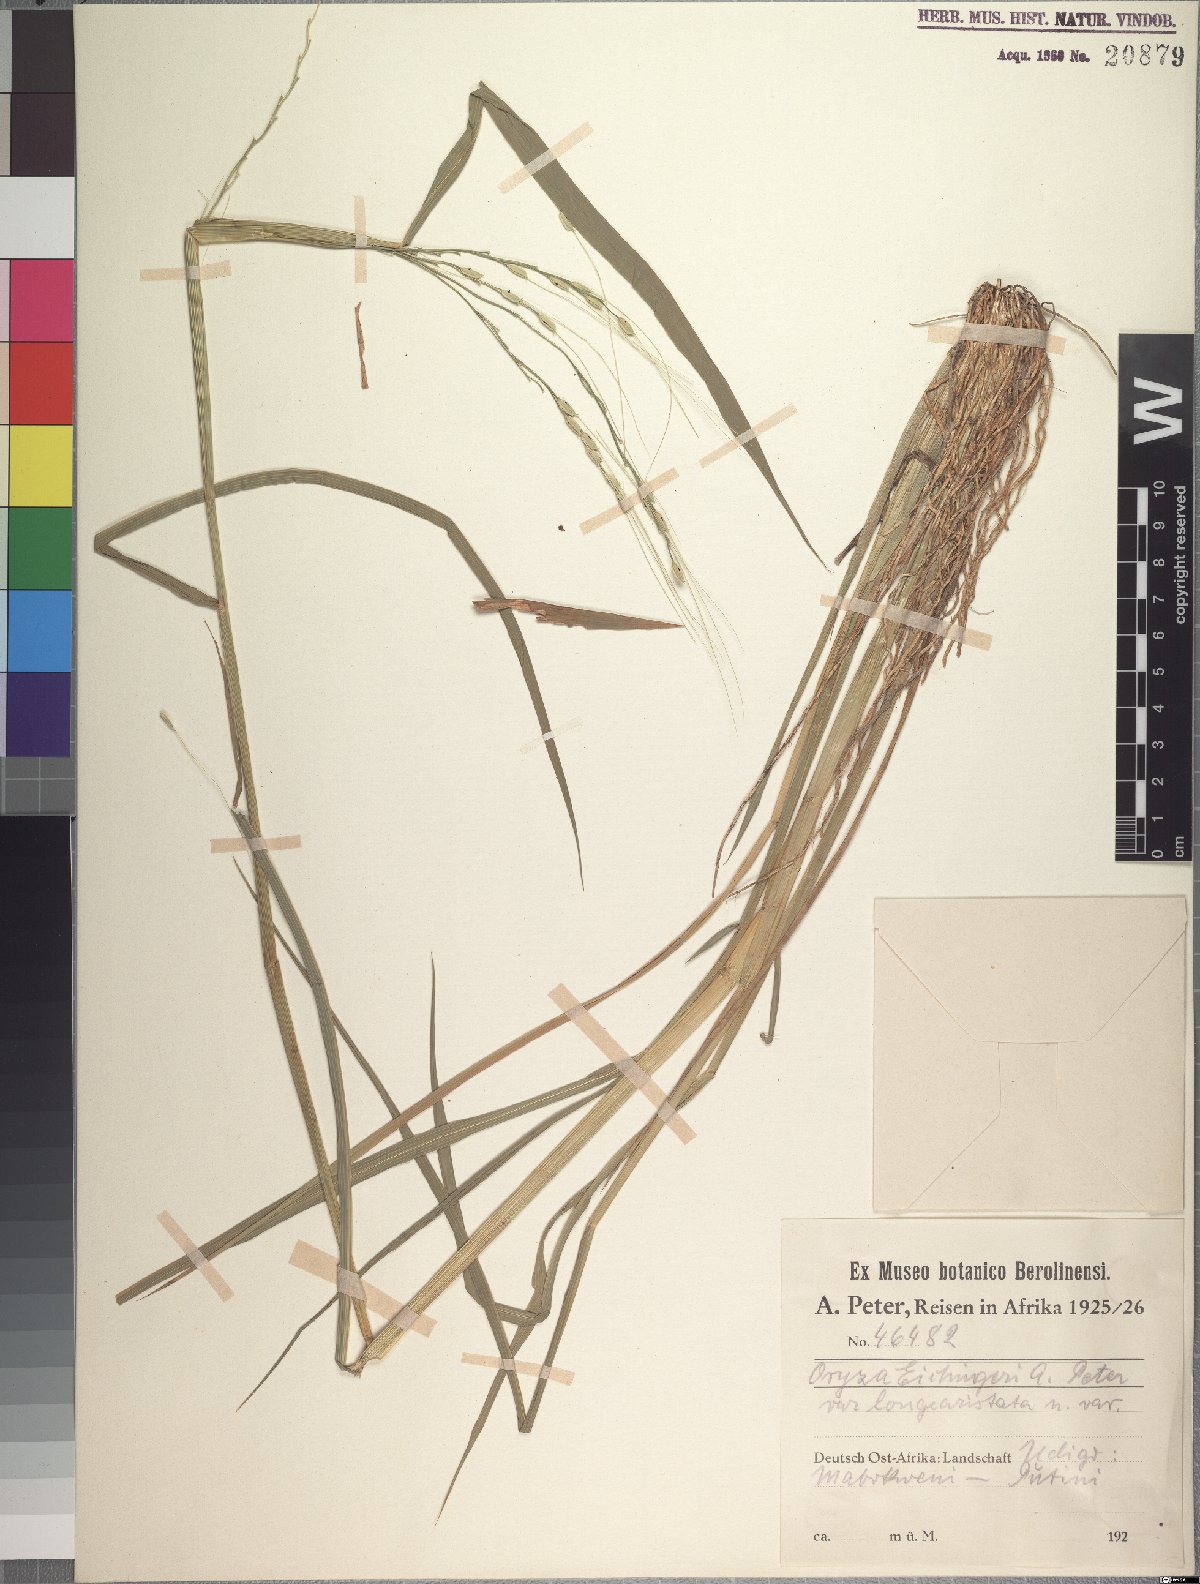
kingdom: Plantae
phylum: Tracheophyta
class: Liliopsida
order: Poales
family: Poaceae
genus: Oryza
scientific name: Oryza punctata
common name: Red rice
